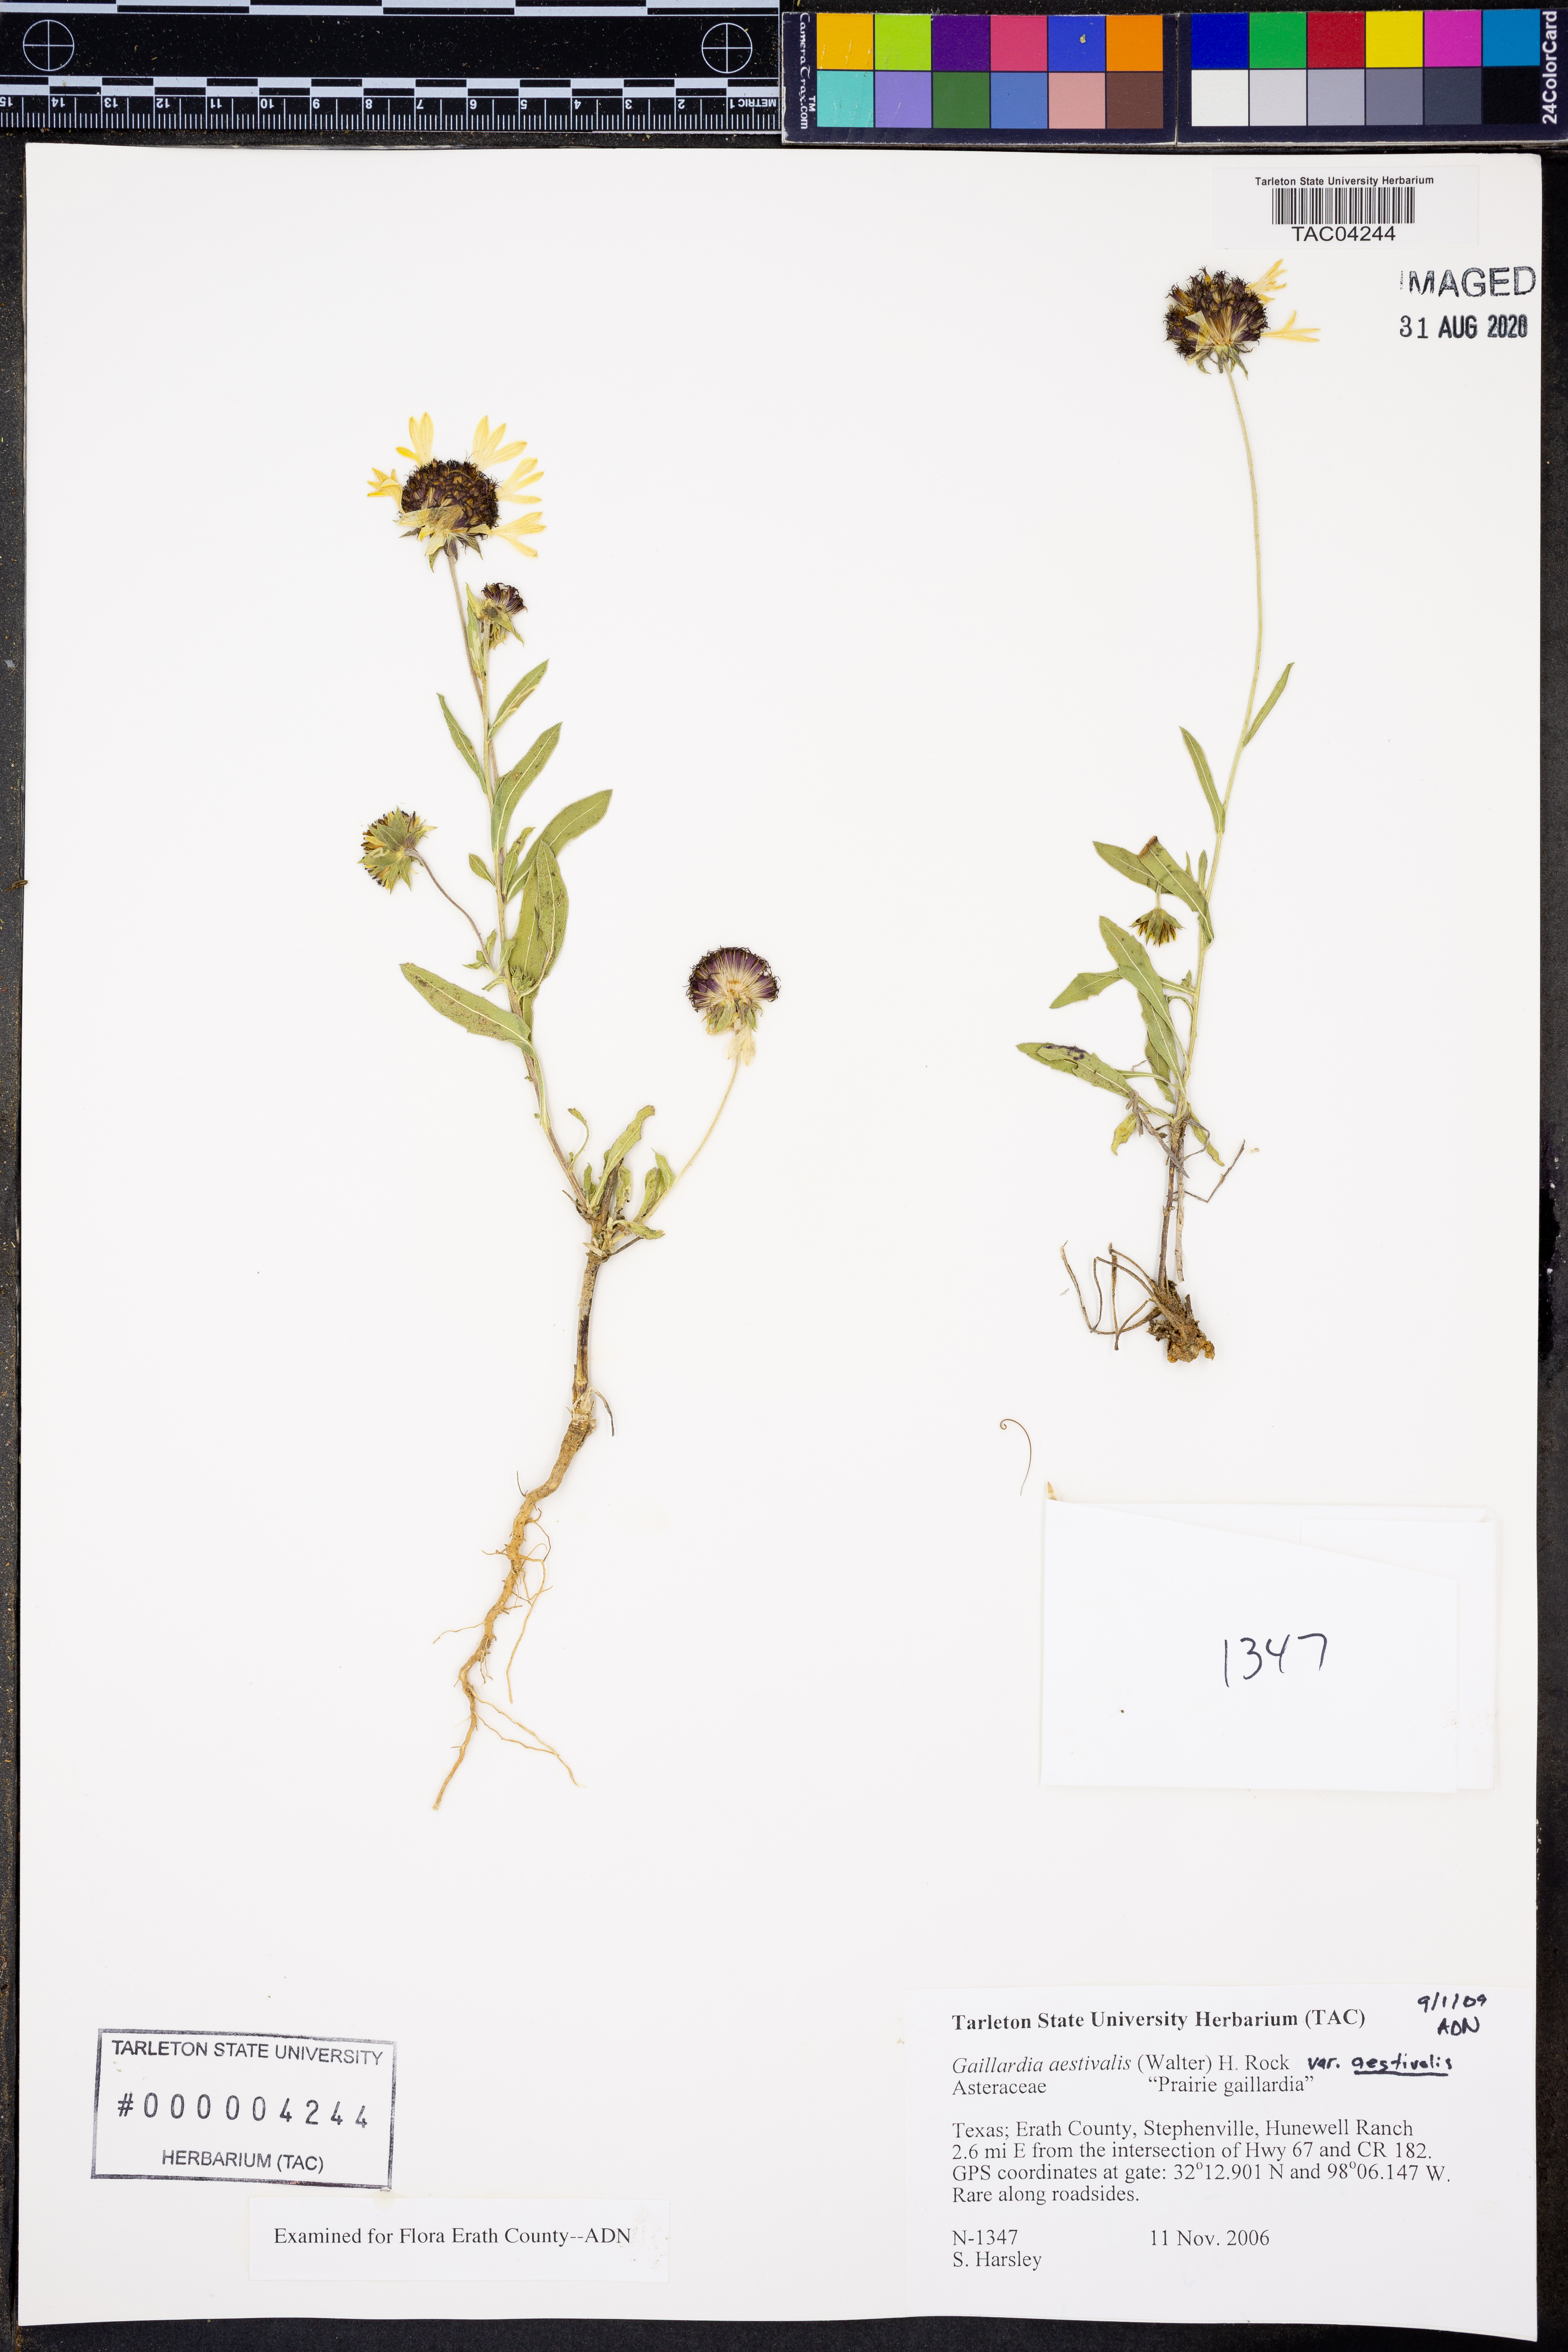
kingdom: Plantae
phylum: Tracheophyta
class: Magnoliopsida
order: Asterales
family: Asteraceae
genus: Gaillardia
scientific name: Gaillardia aestivalis
